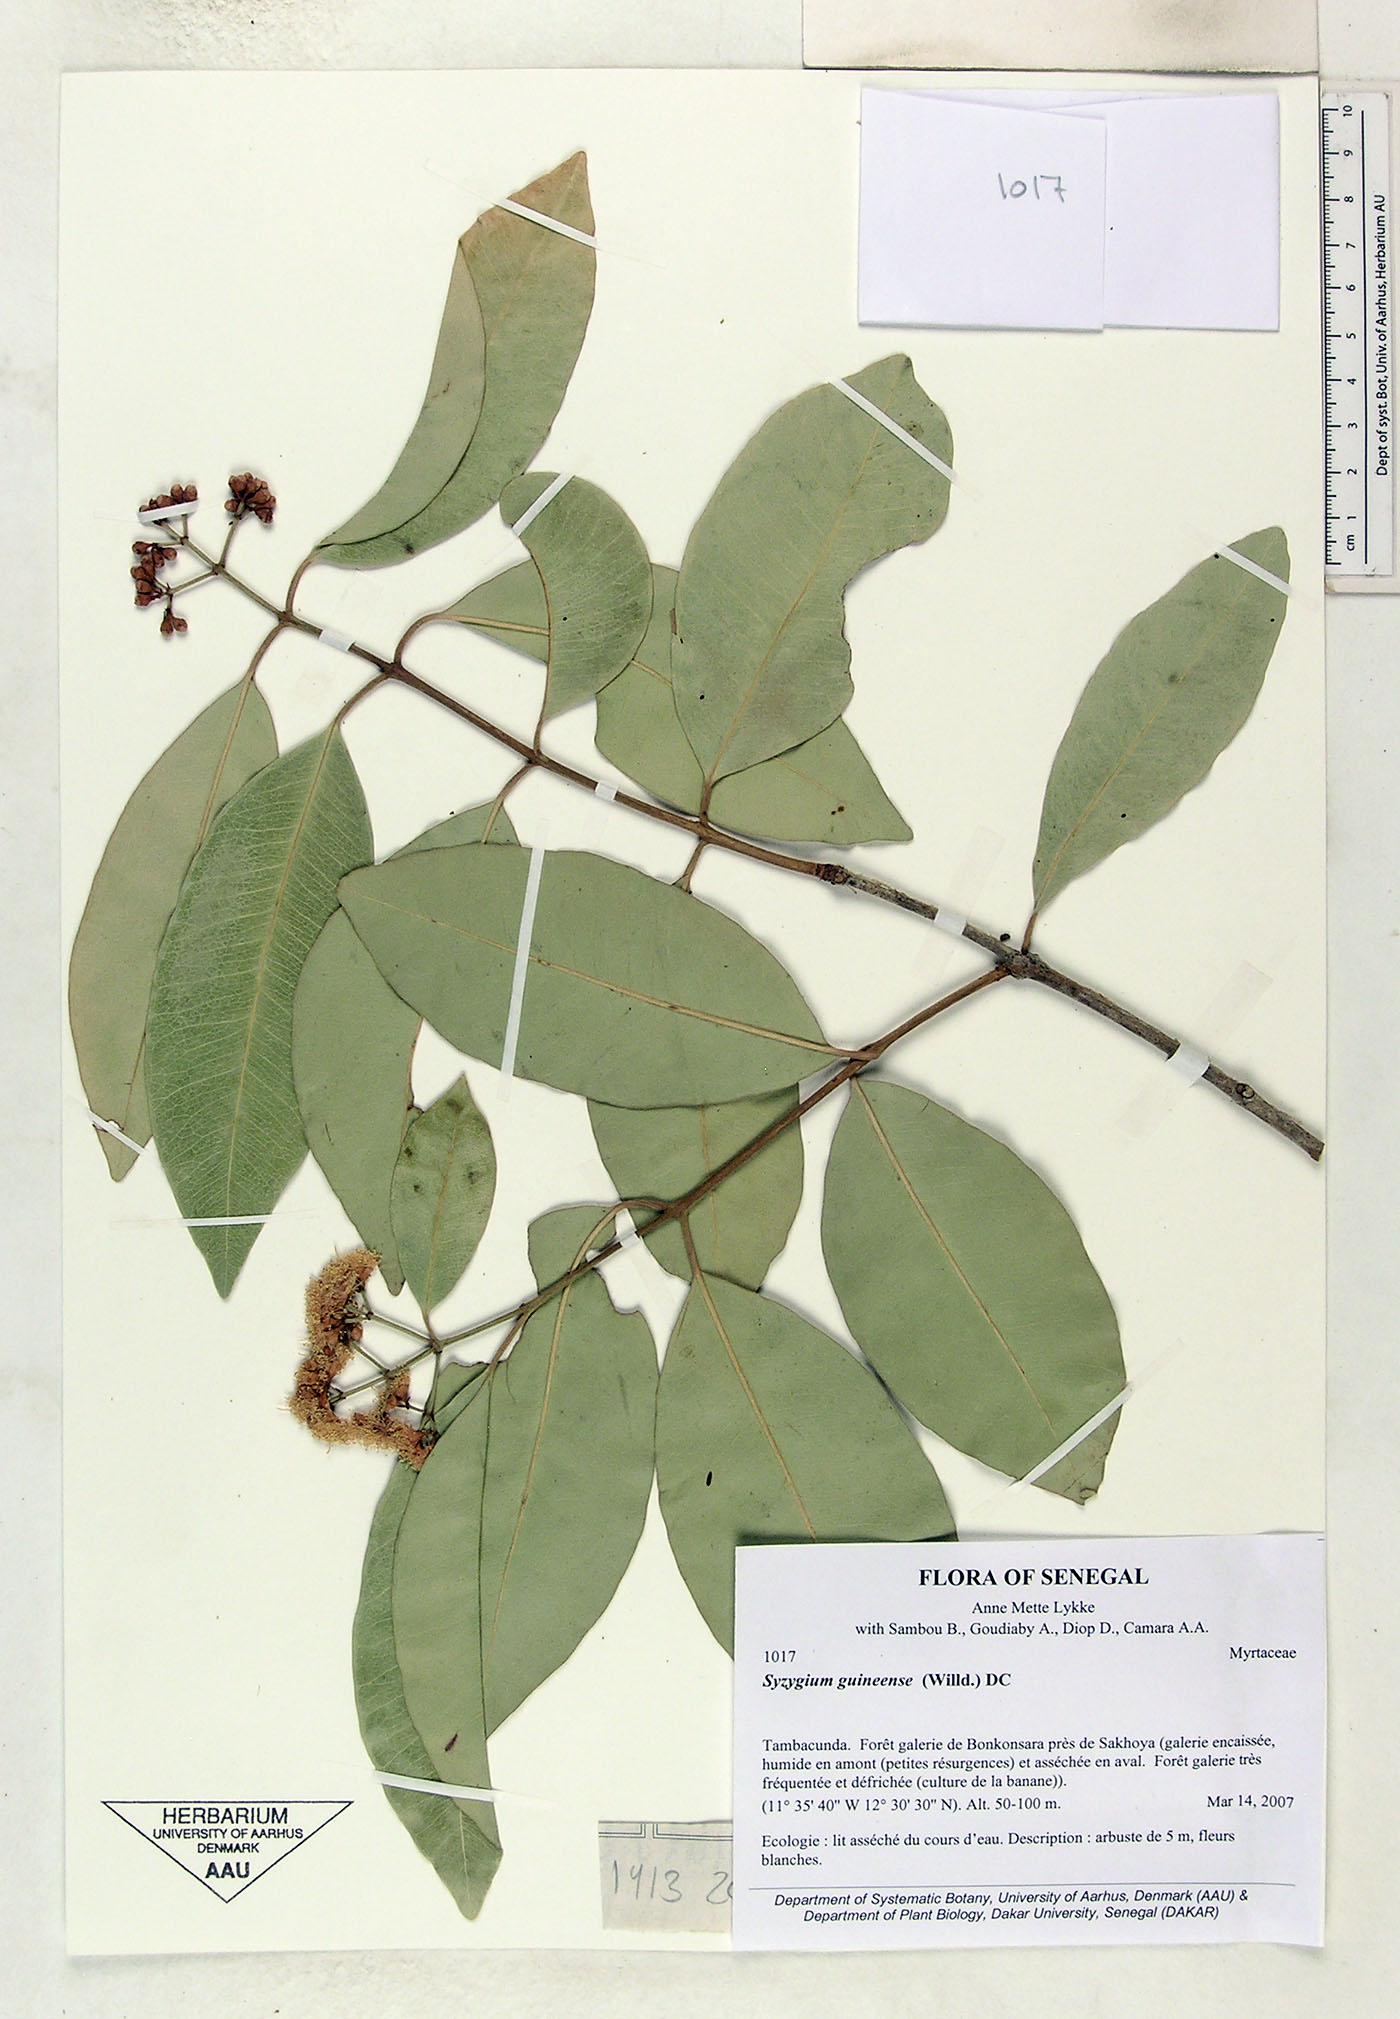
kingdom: Plantae
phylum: Tracheophyta
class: Magnoliopsida
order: Myrtales
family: Myrtaceae
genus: Syzygium
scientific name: Syzygium guineense
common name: Water-pear
